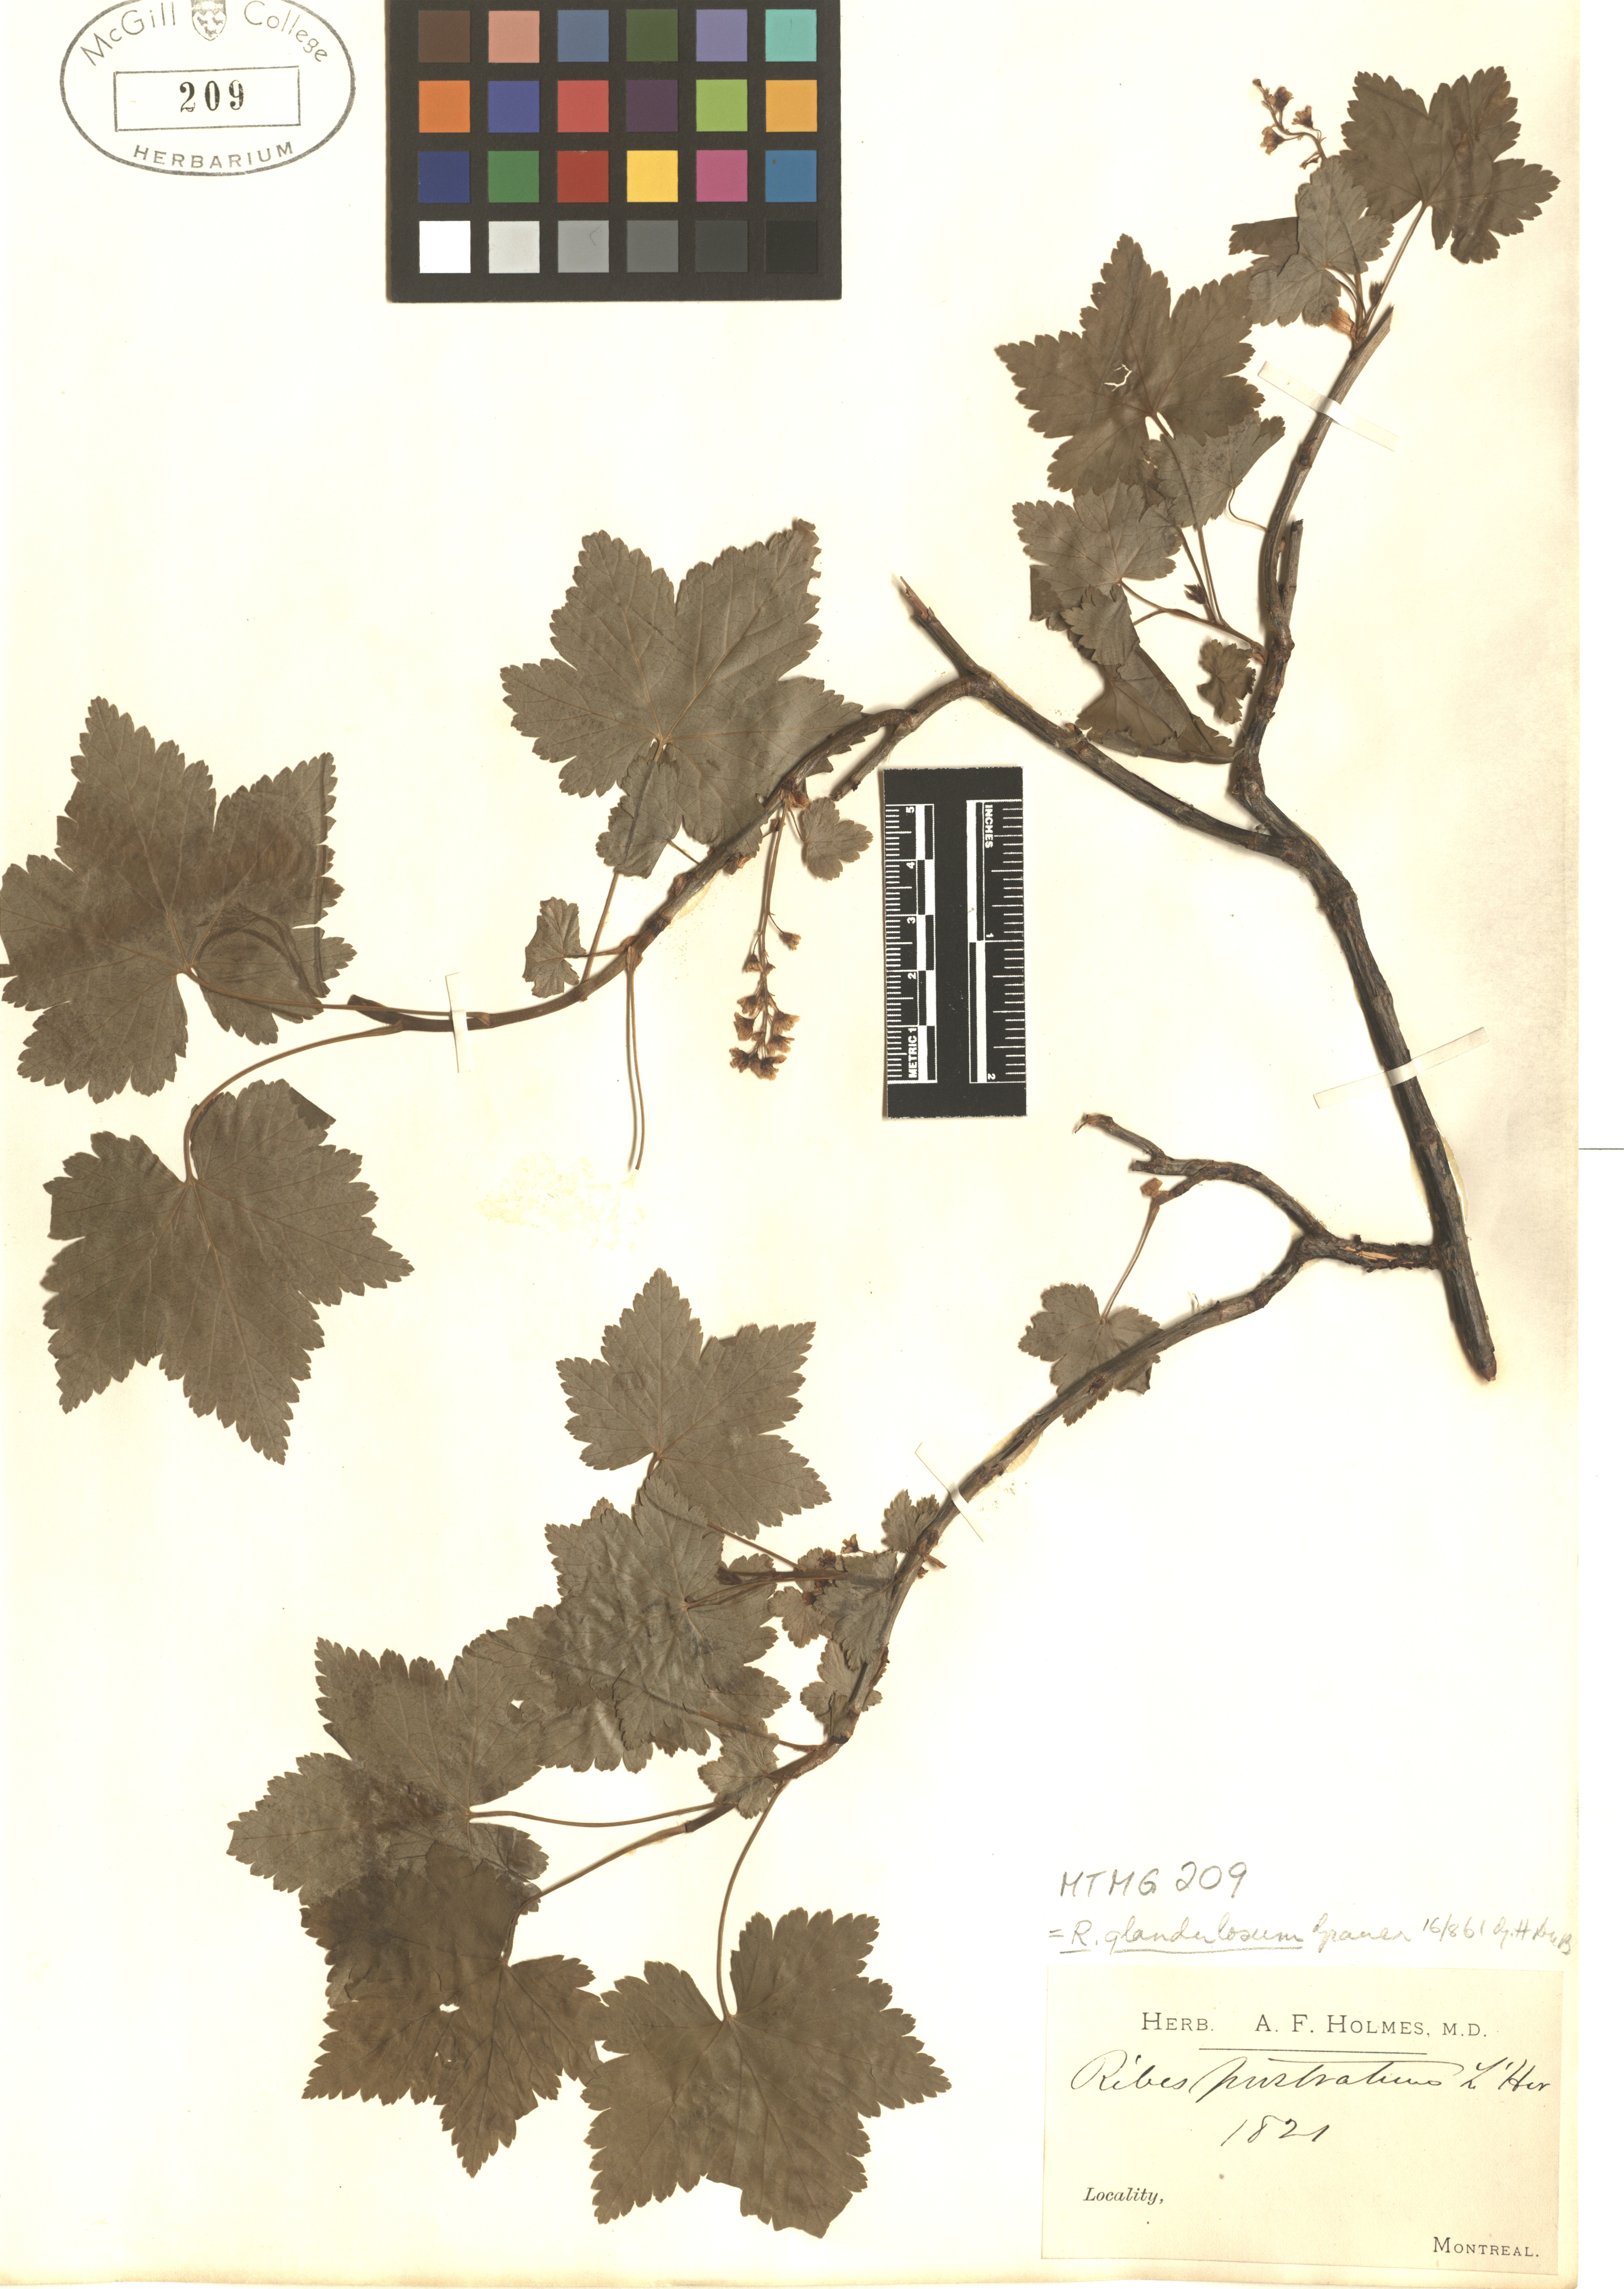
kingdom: Plantae
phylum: Tracheophyta
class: Magnoliopsida
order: Saxifragales
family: Grossulariaceae
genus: Ribes
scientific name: Ribes glandulosum
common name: Skunk currant
